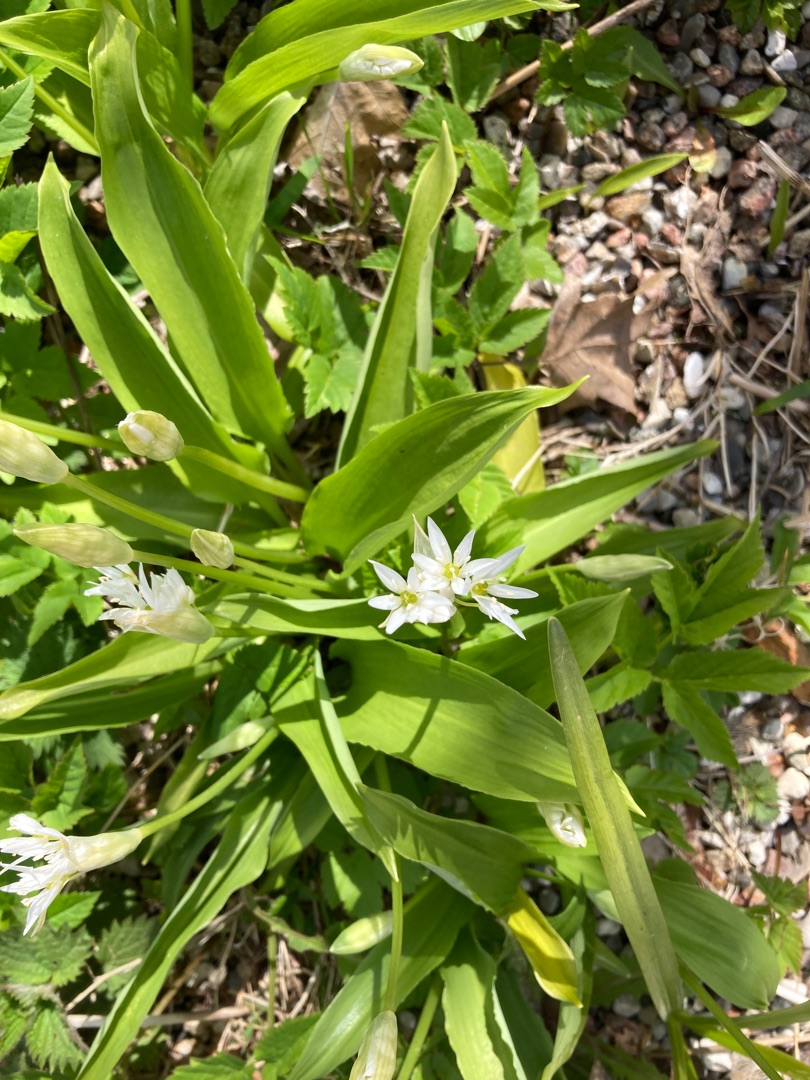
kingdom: Plantae
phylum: Tracheophyta
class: Liliopsida
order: Asparagales
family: Amaryllidaceae
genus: Allium
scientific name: Allium ursinum
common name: Rams-løg
